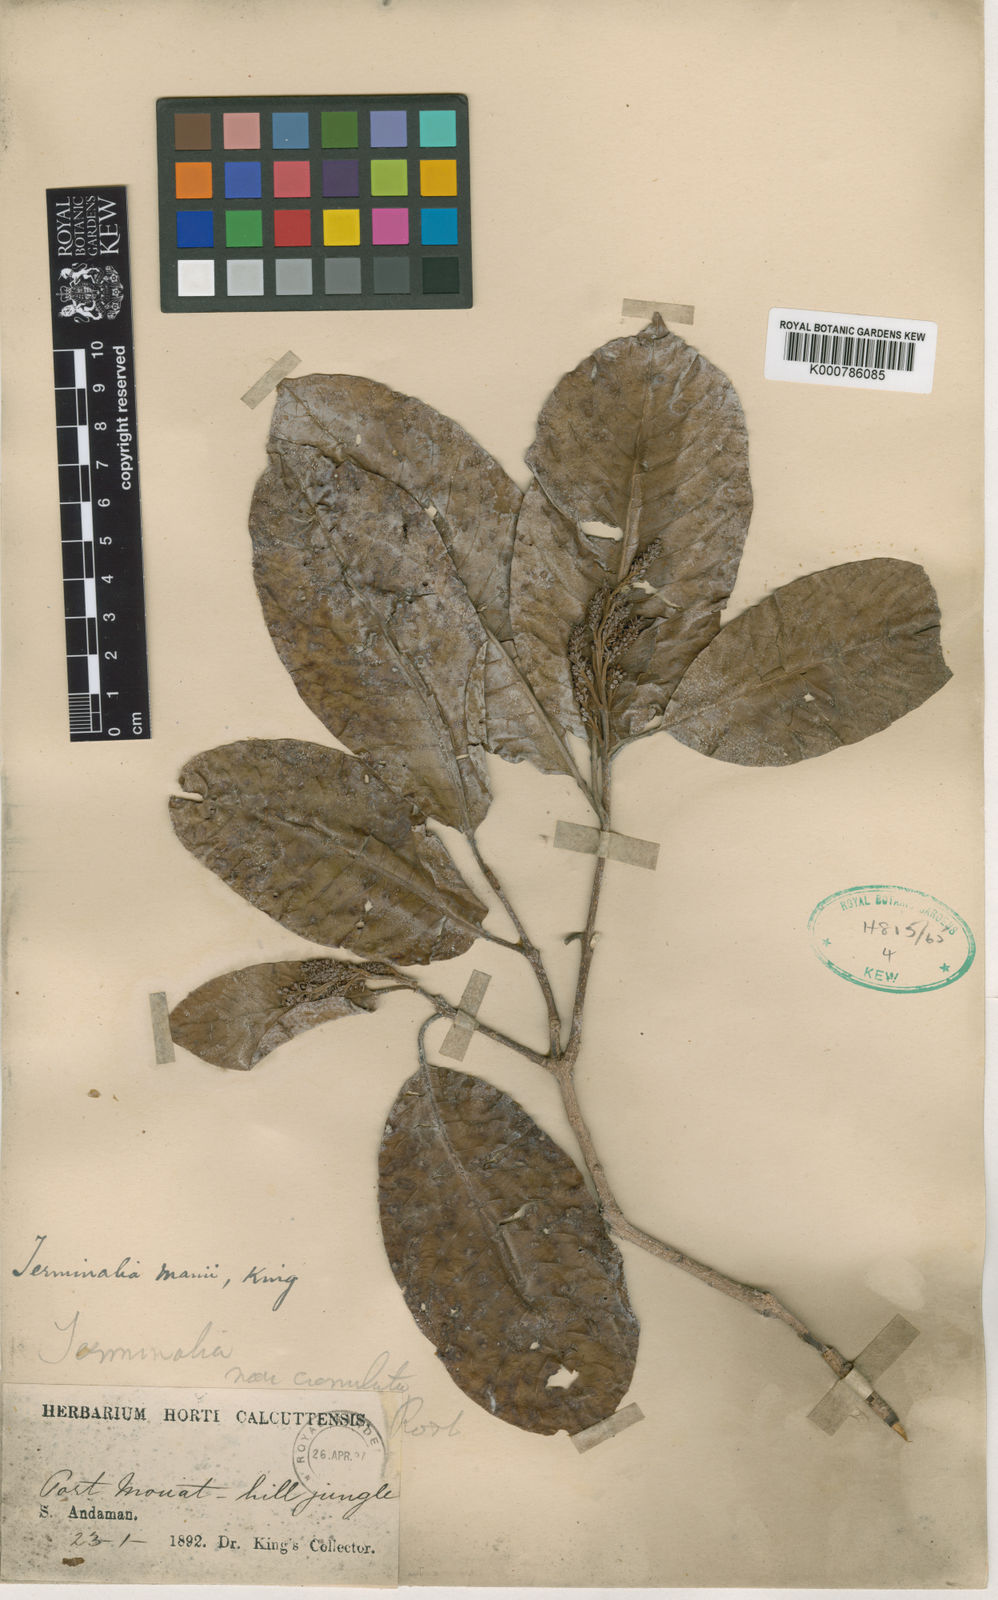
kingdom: Plantae
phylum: Tracheophyta
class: Magnoliopsida
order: Myrtales
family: Combretaceae
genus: Terminalia
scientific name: Terminalia citrina
